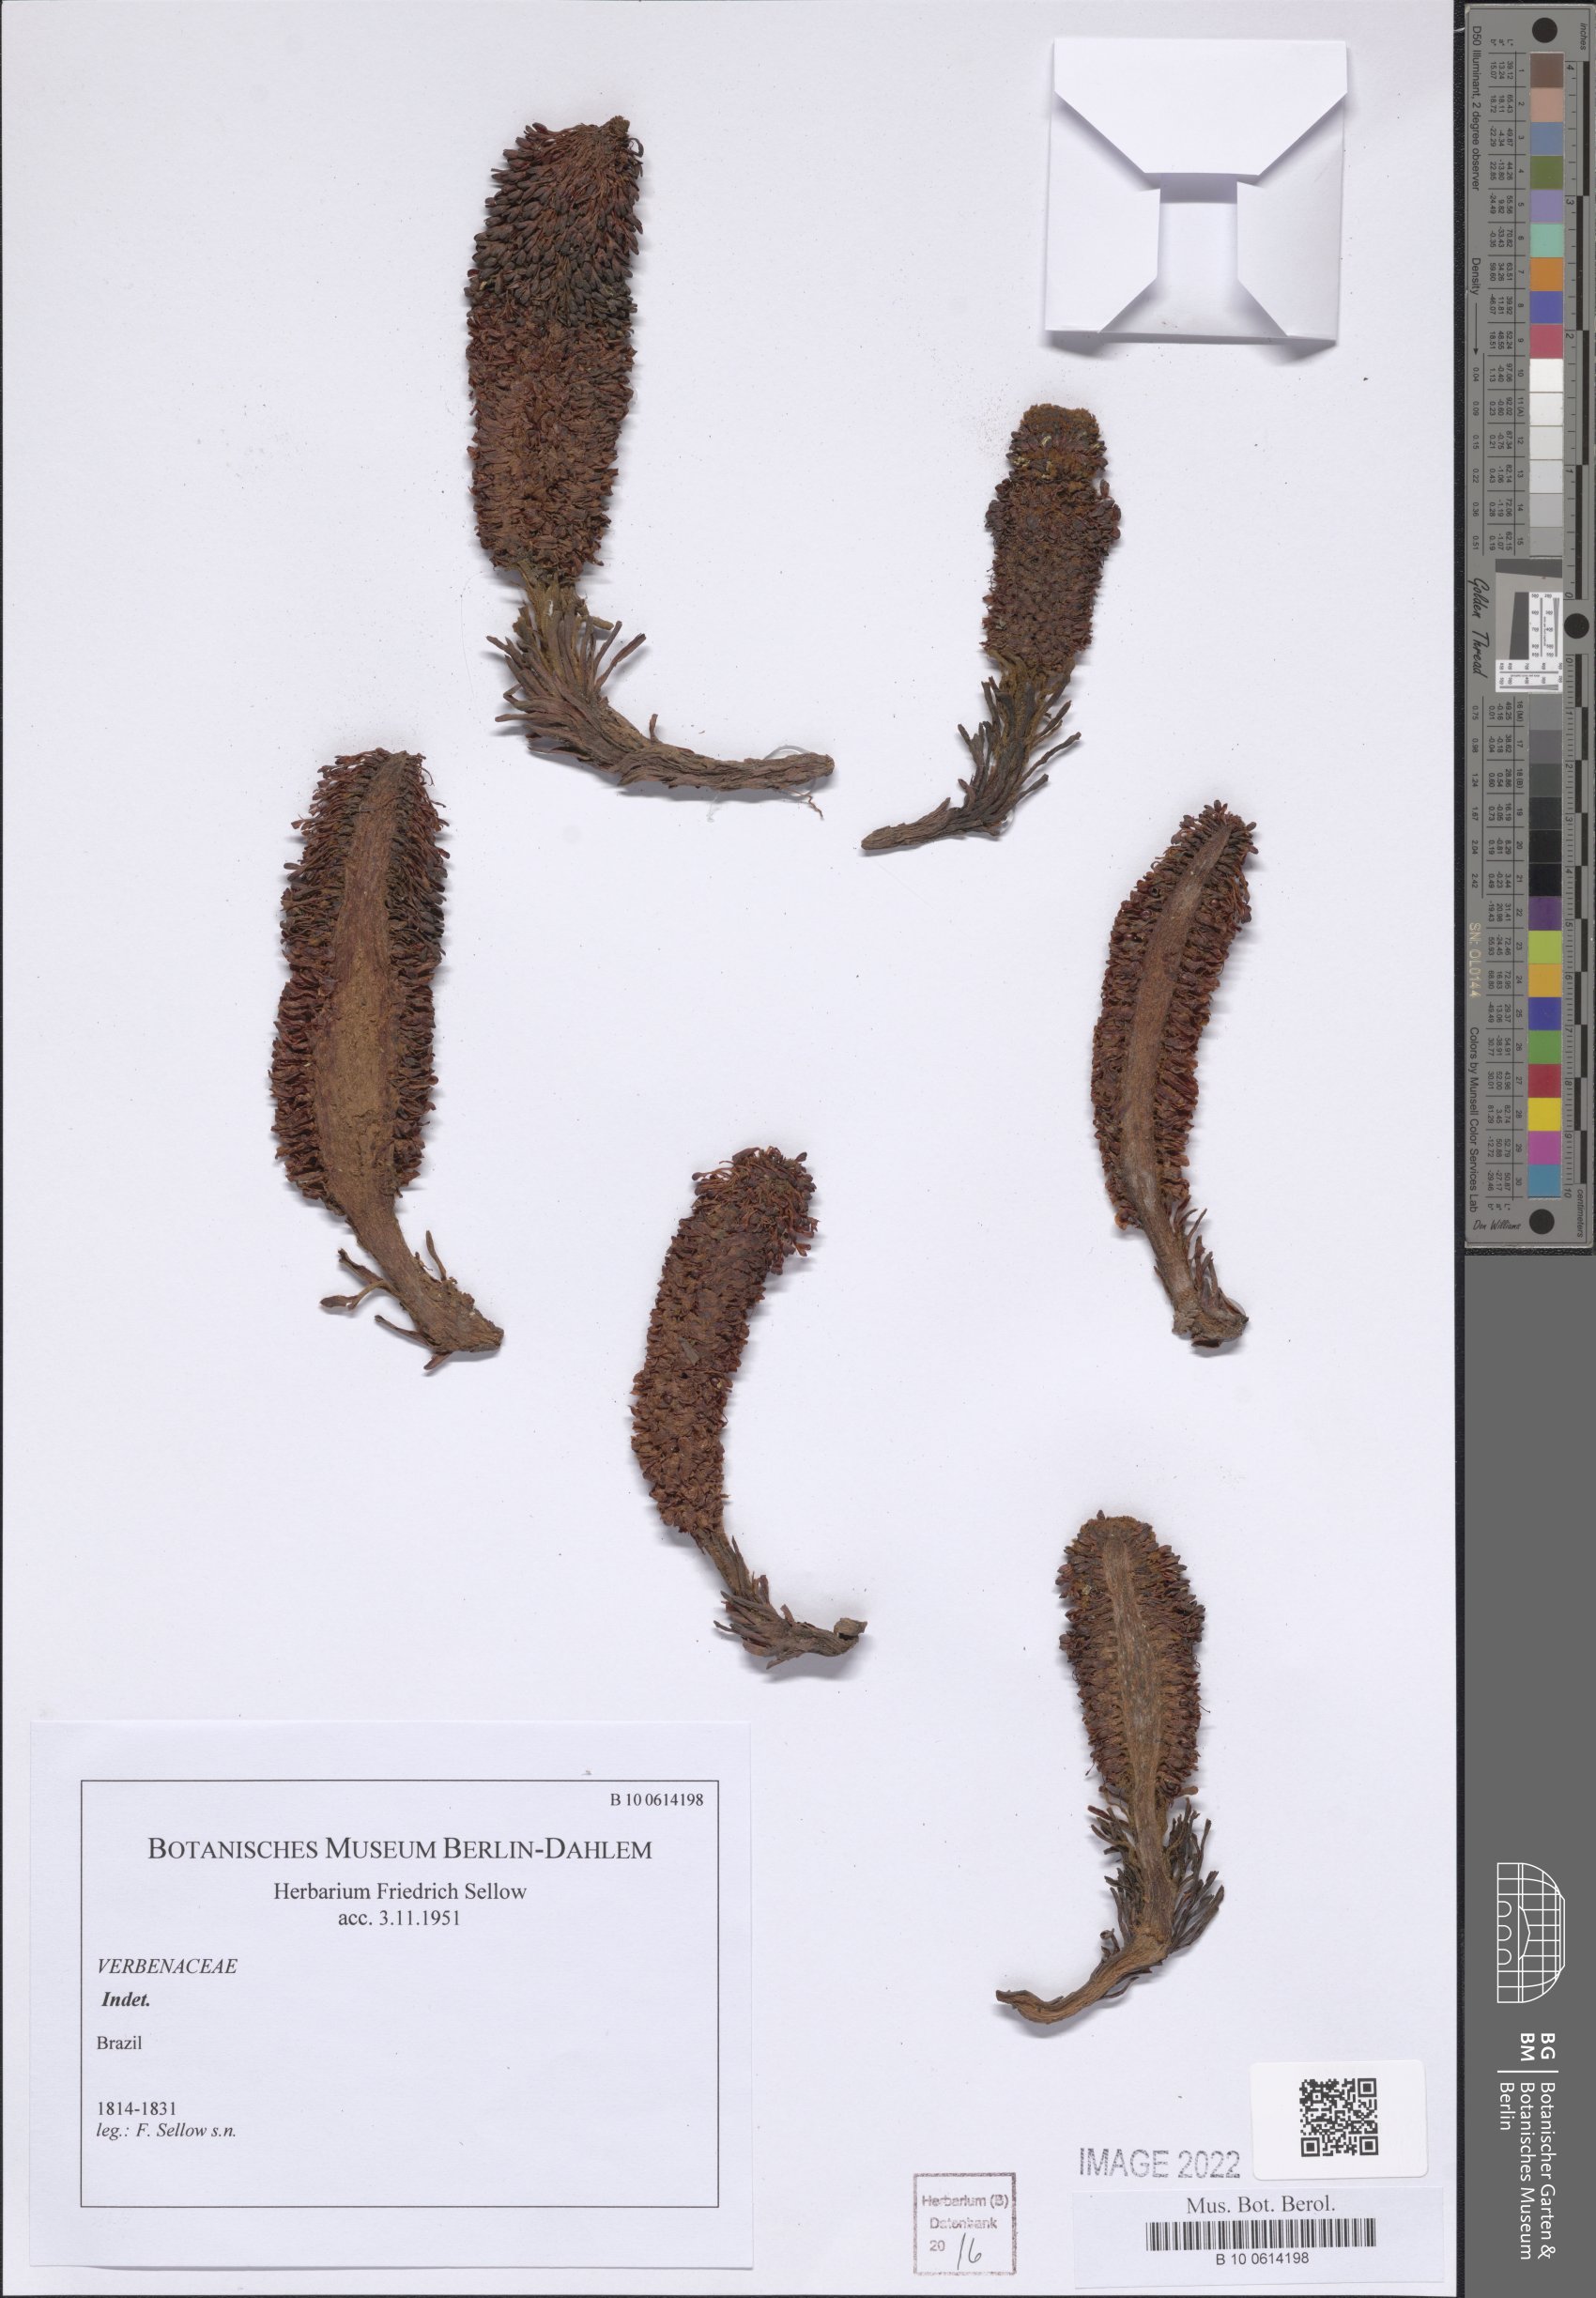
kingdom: Plantae
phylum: Tracheophyta
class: Magnoliopsida
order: Lamiales
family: Verbenaceae
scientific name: Verbenaceae
